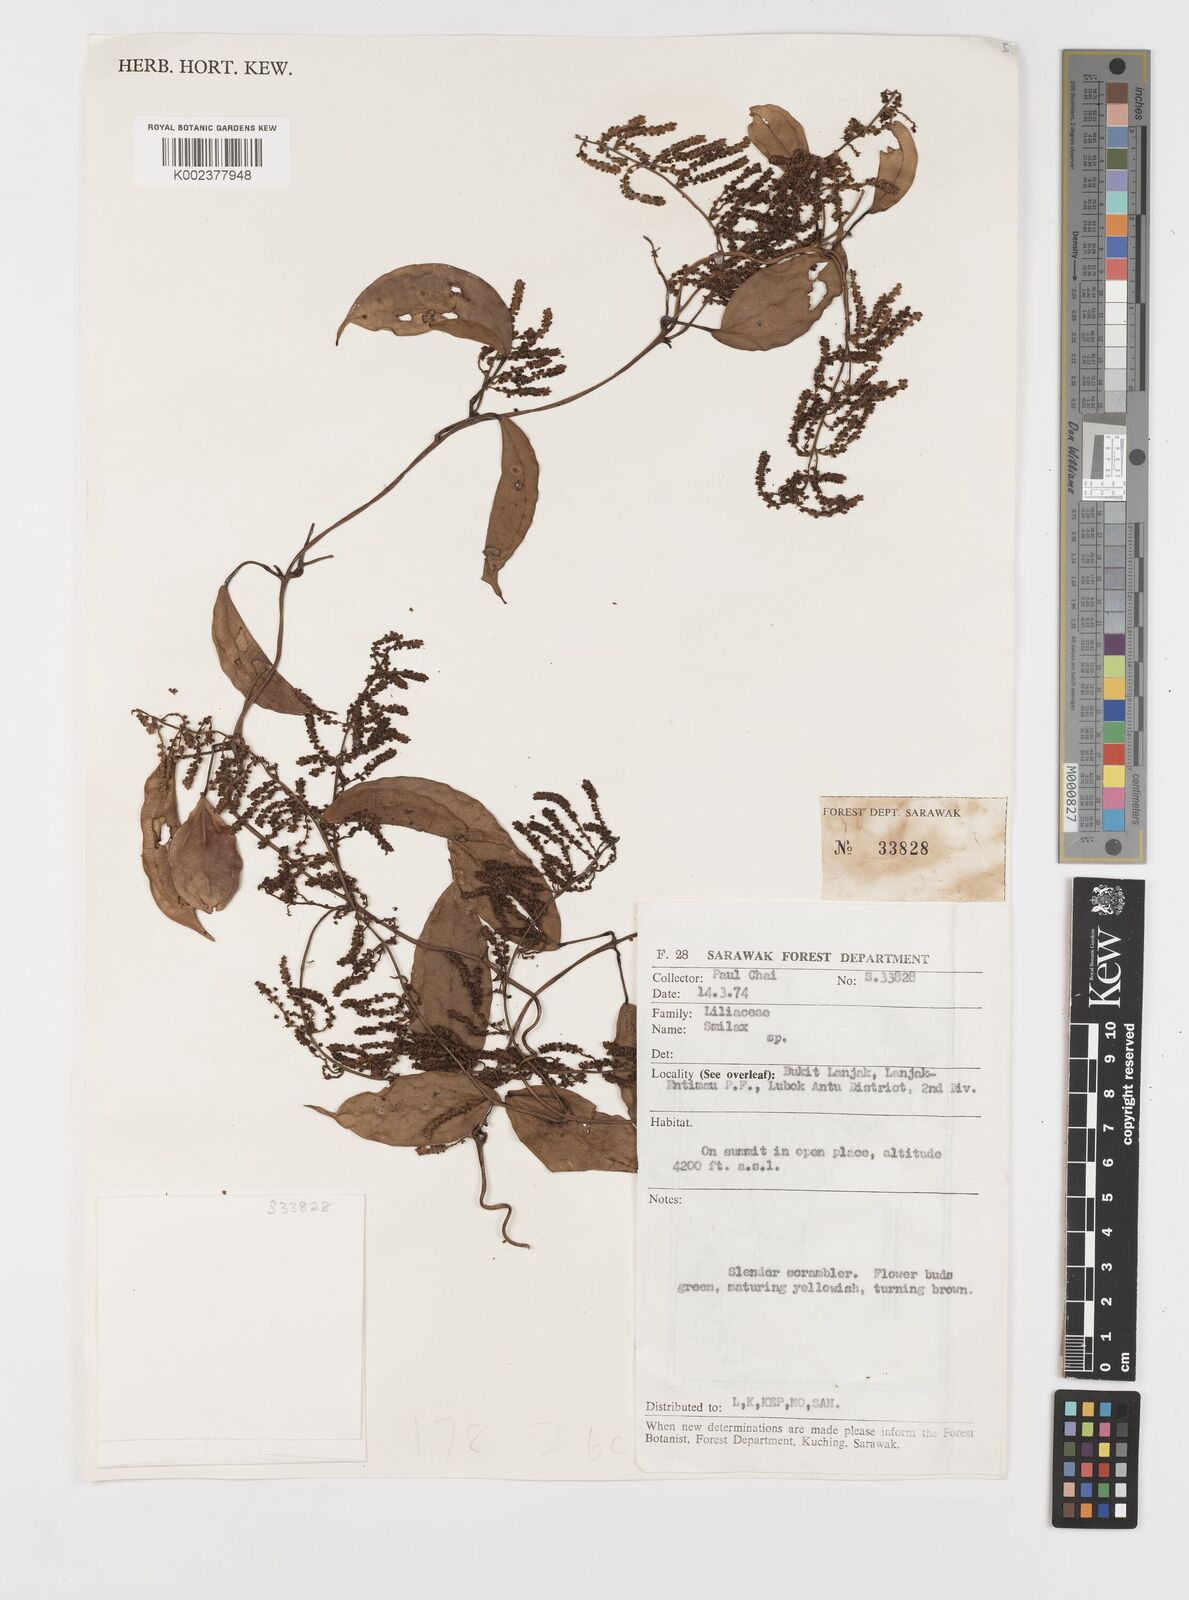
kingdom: Plantae
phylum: Tracheophyta
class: Liliopsida
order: Liliales
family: Smilacaceae
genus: Smilax
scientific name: Smilax
